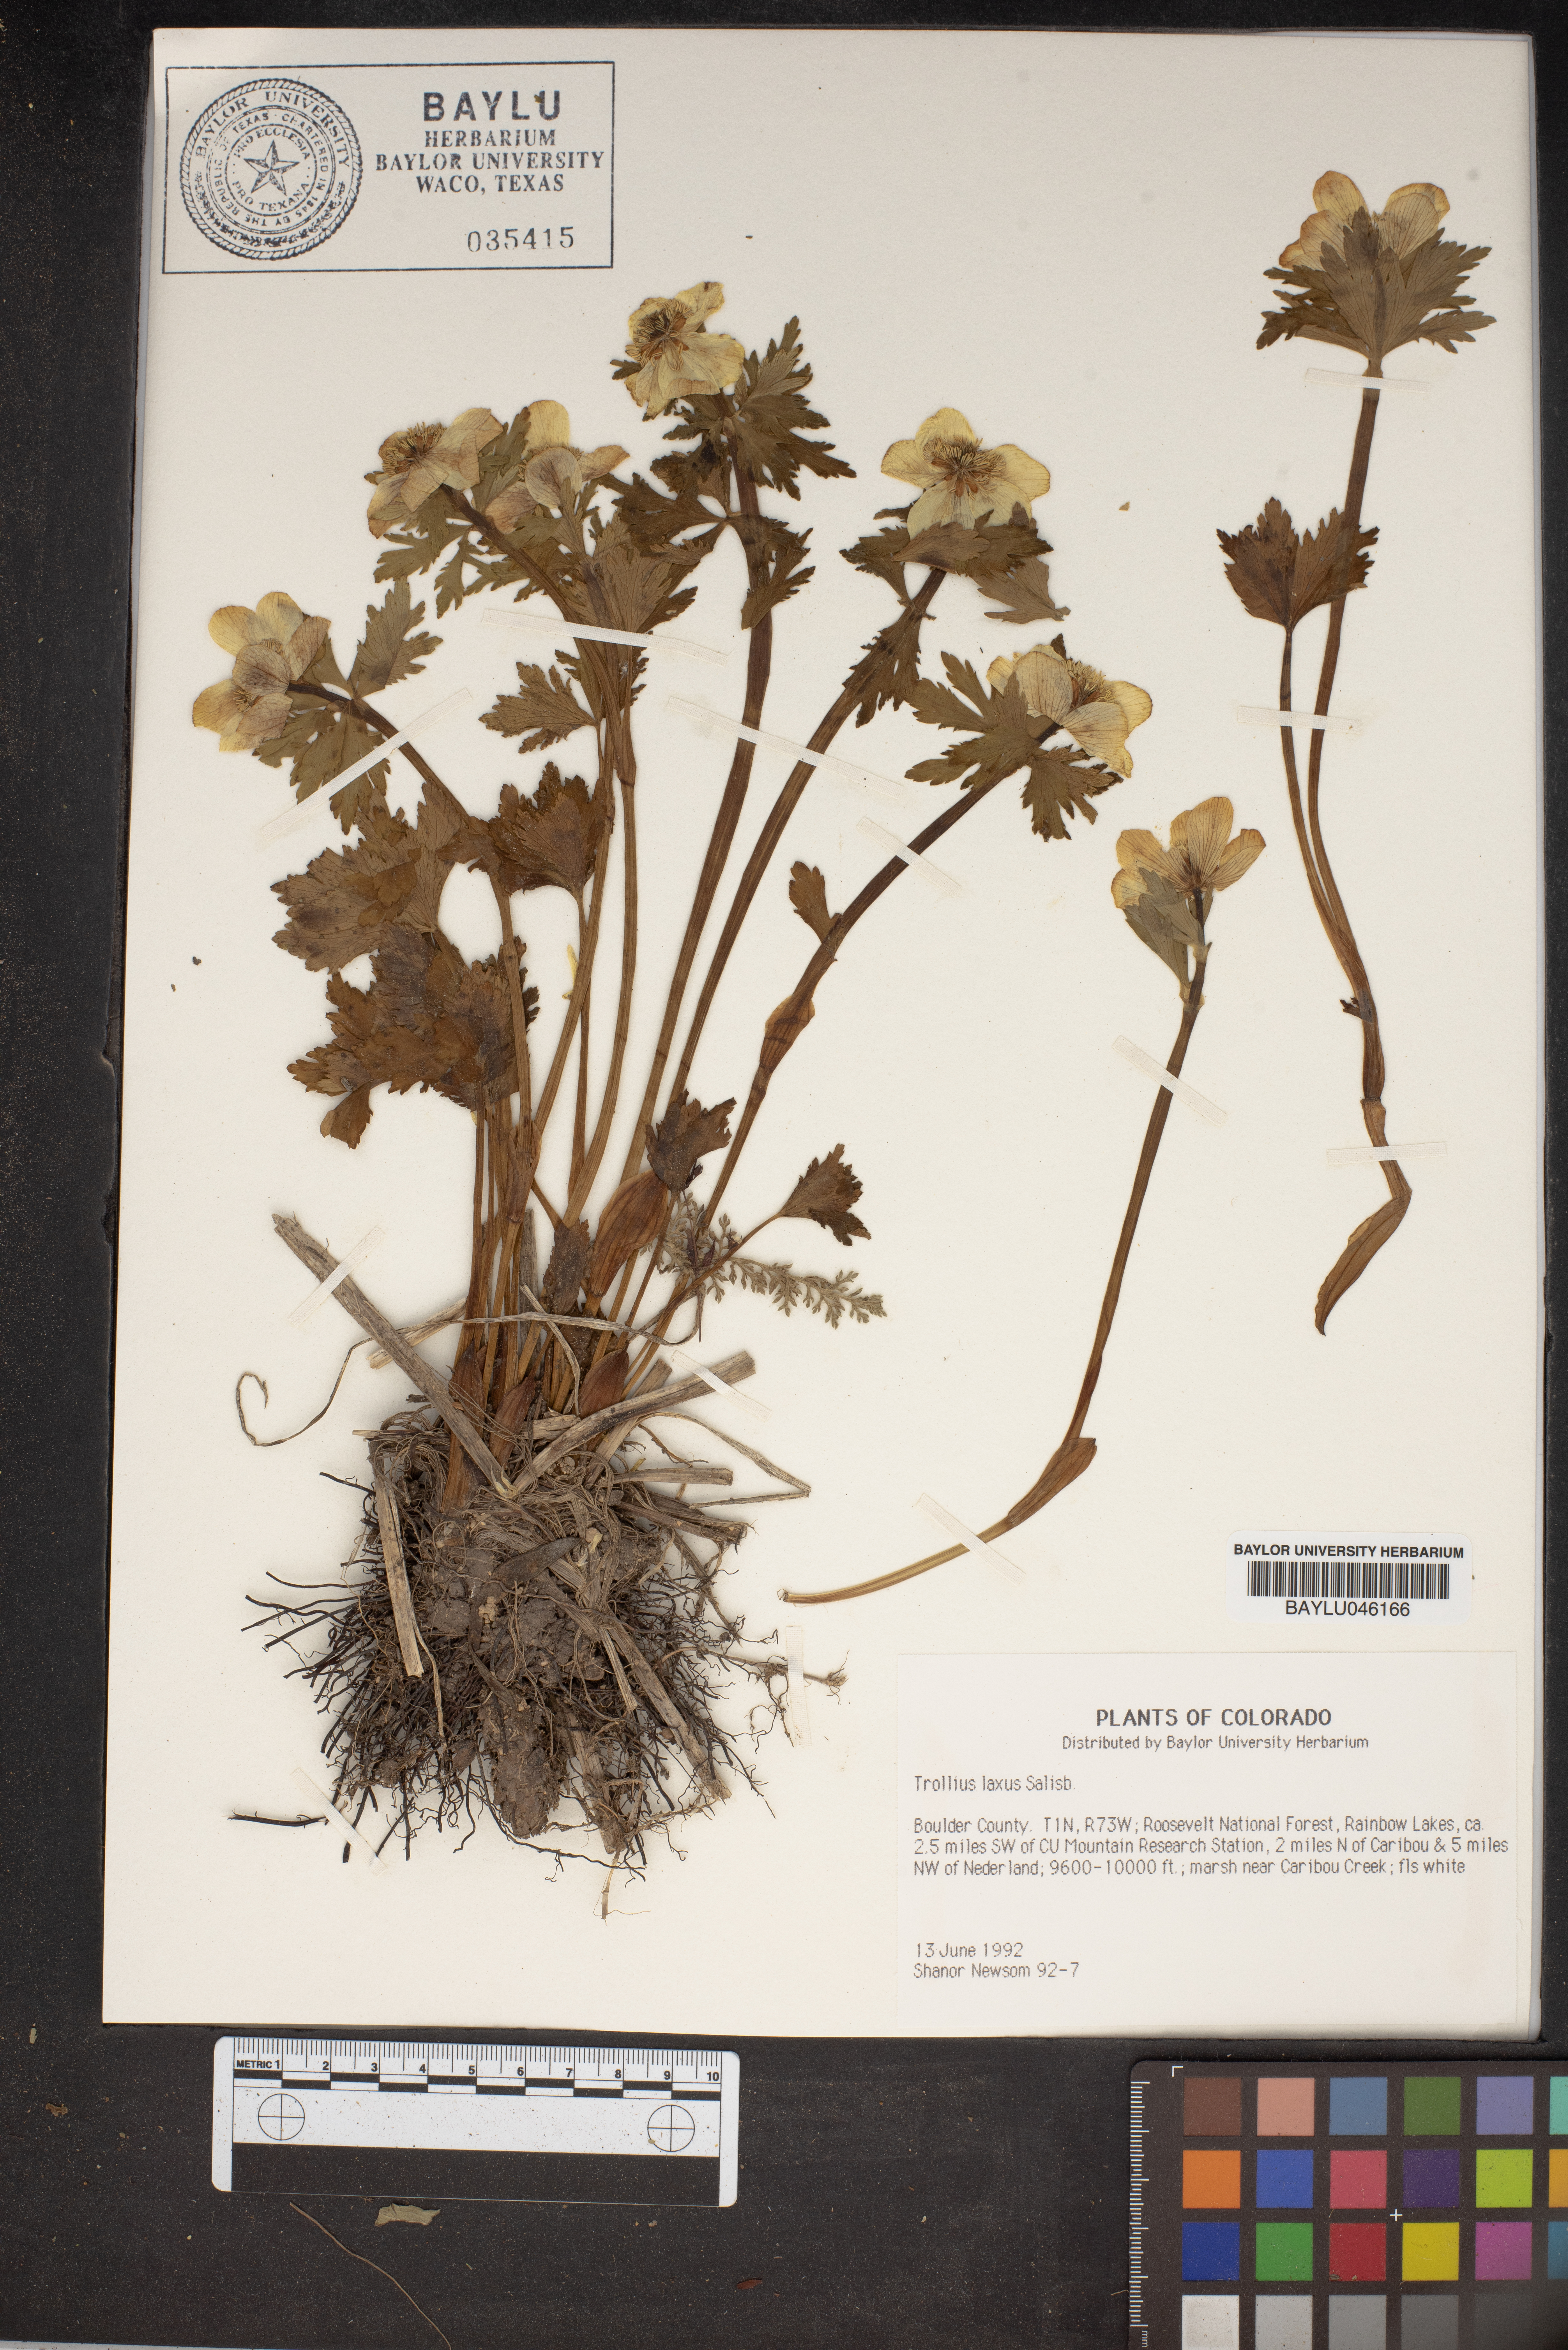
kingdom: Plantae
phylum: Tracheophyta
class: Magnoliopsida
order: Ranunculales
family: Ranunculaceae
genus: Trollius
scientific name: Trollius laxus
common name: American globeflower
